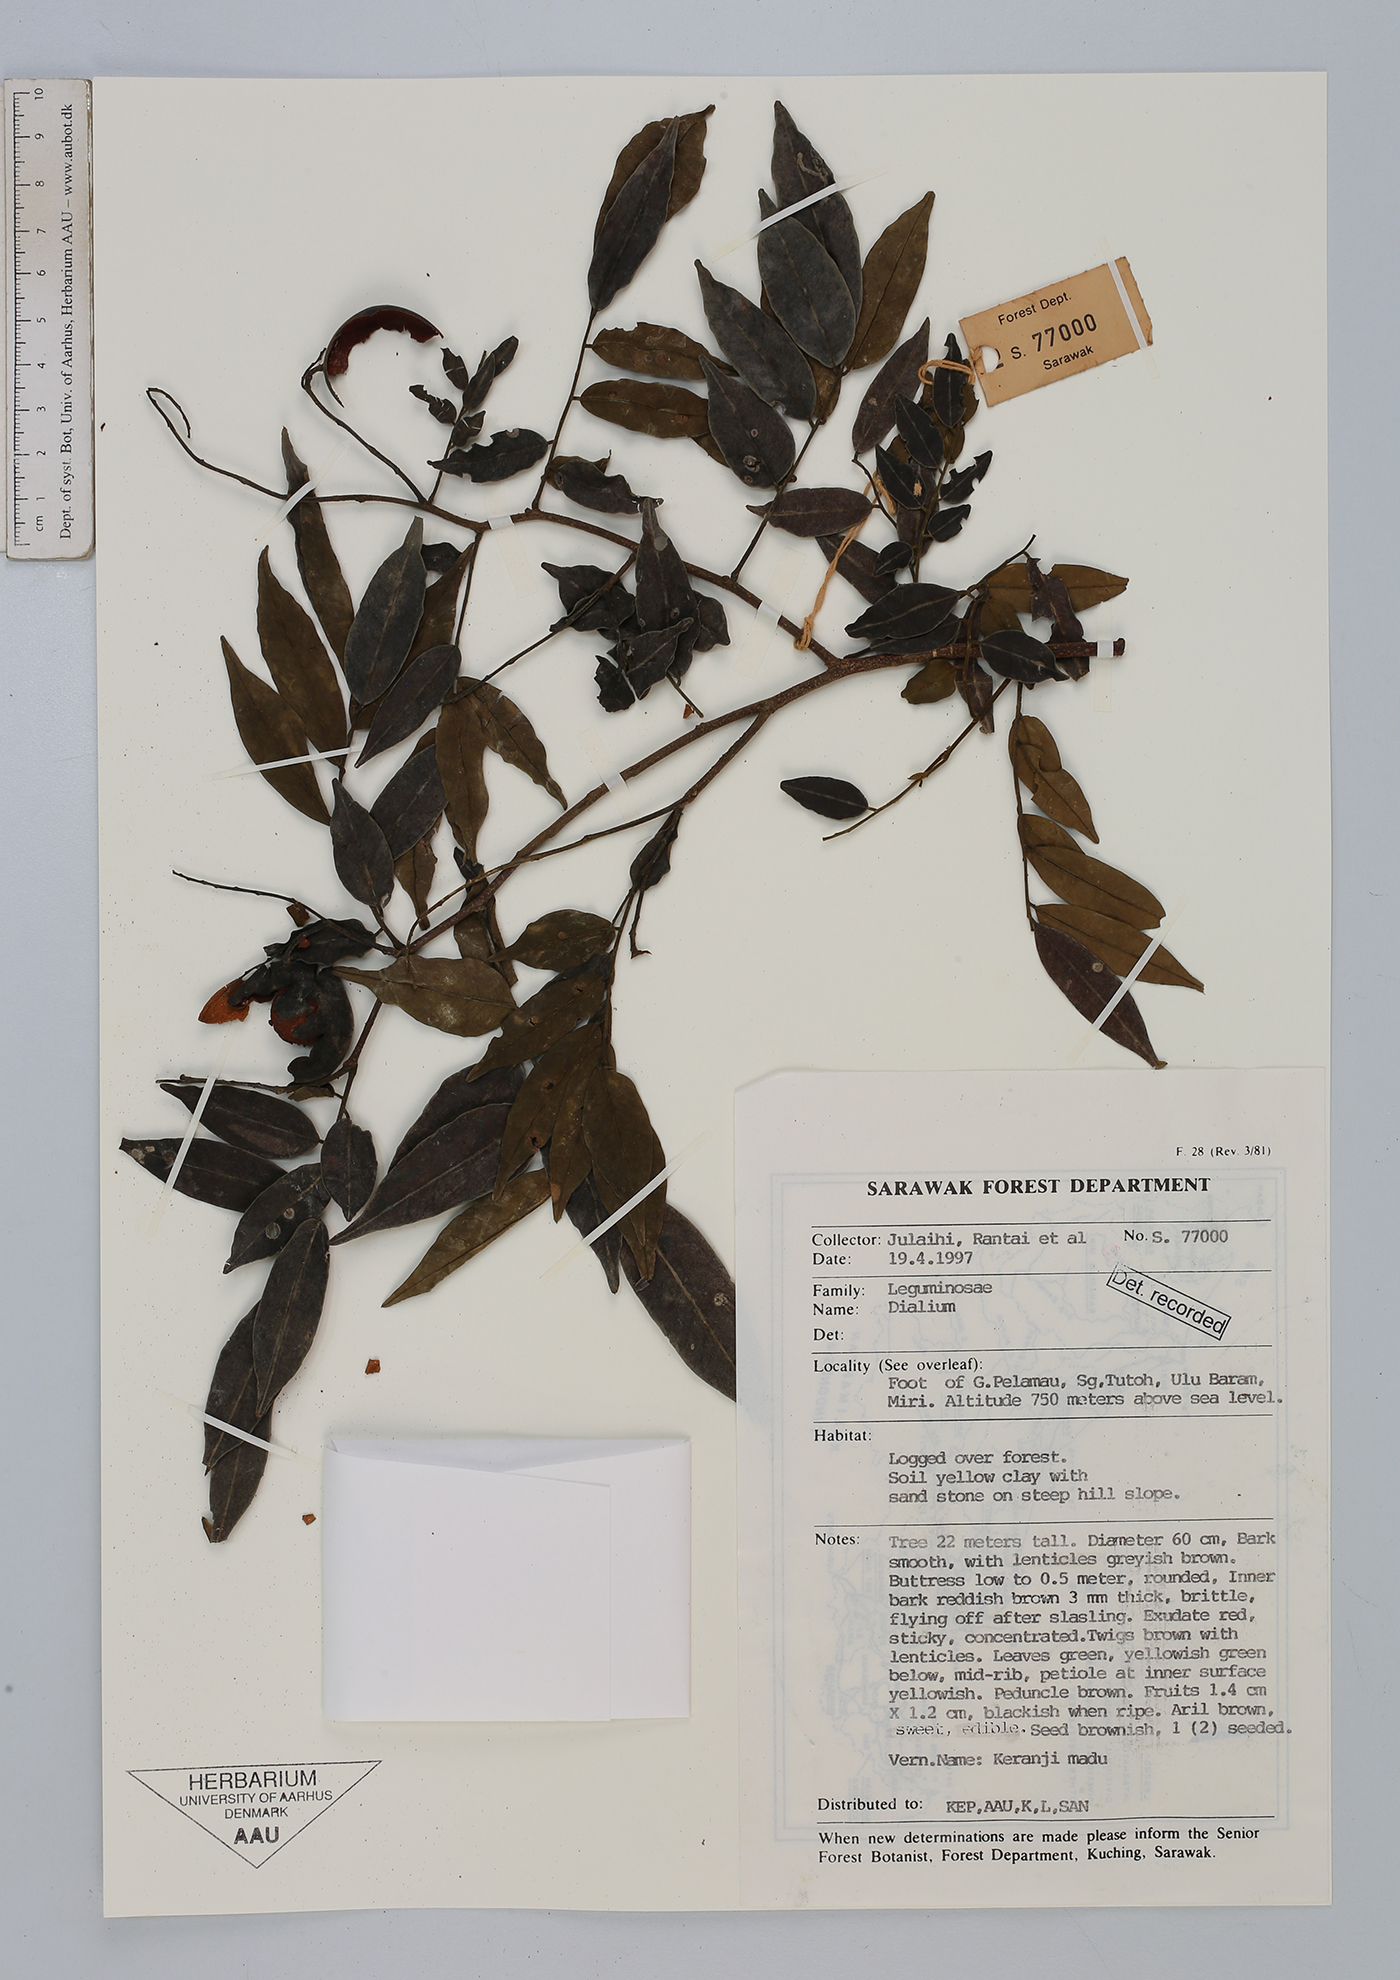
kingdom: Plantae
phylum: Tracheophyta
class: Magnoliopsida
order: Fabales
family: Fabaceae
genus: Dialium
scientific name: Dialium
